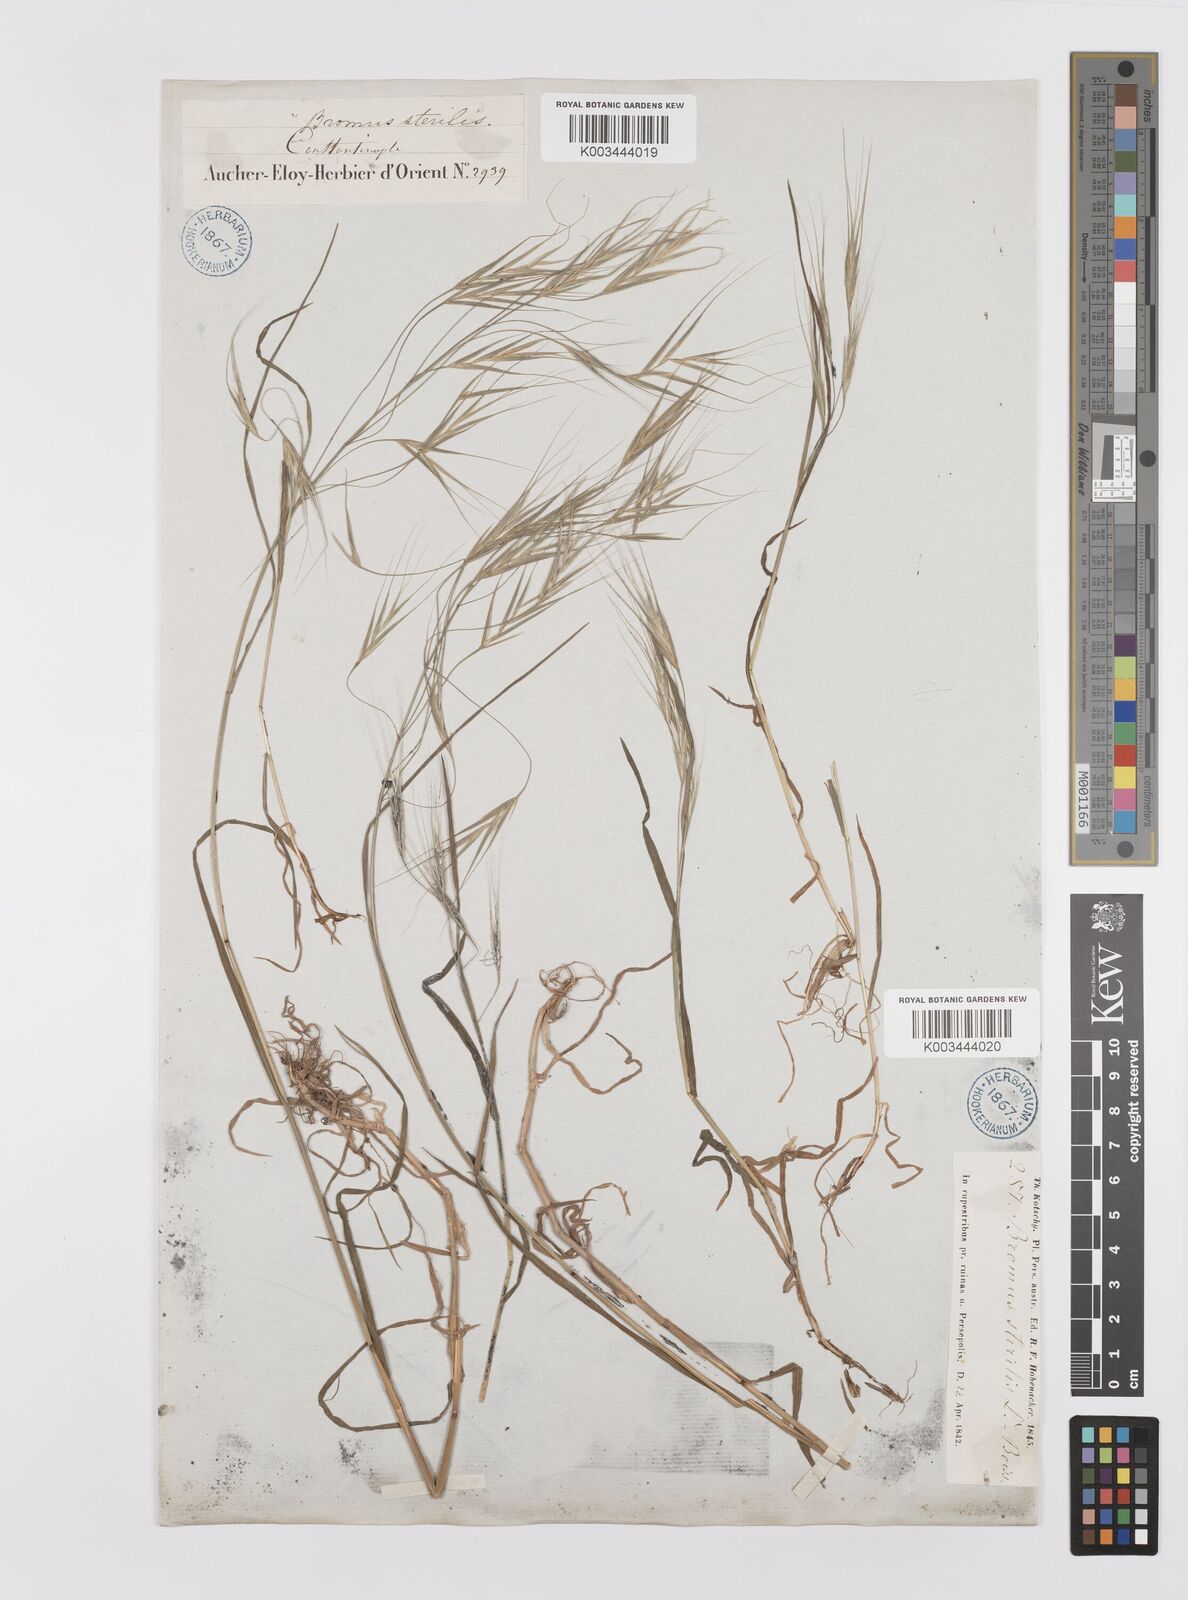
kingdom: Plantae
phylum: Tracheophyta
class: Liliopsida
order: Poales
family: Poaceae
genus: Bromus
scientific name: Bromus sterilis
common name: Poverty brome
